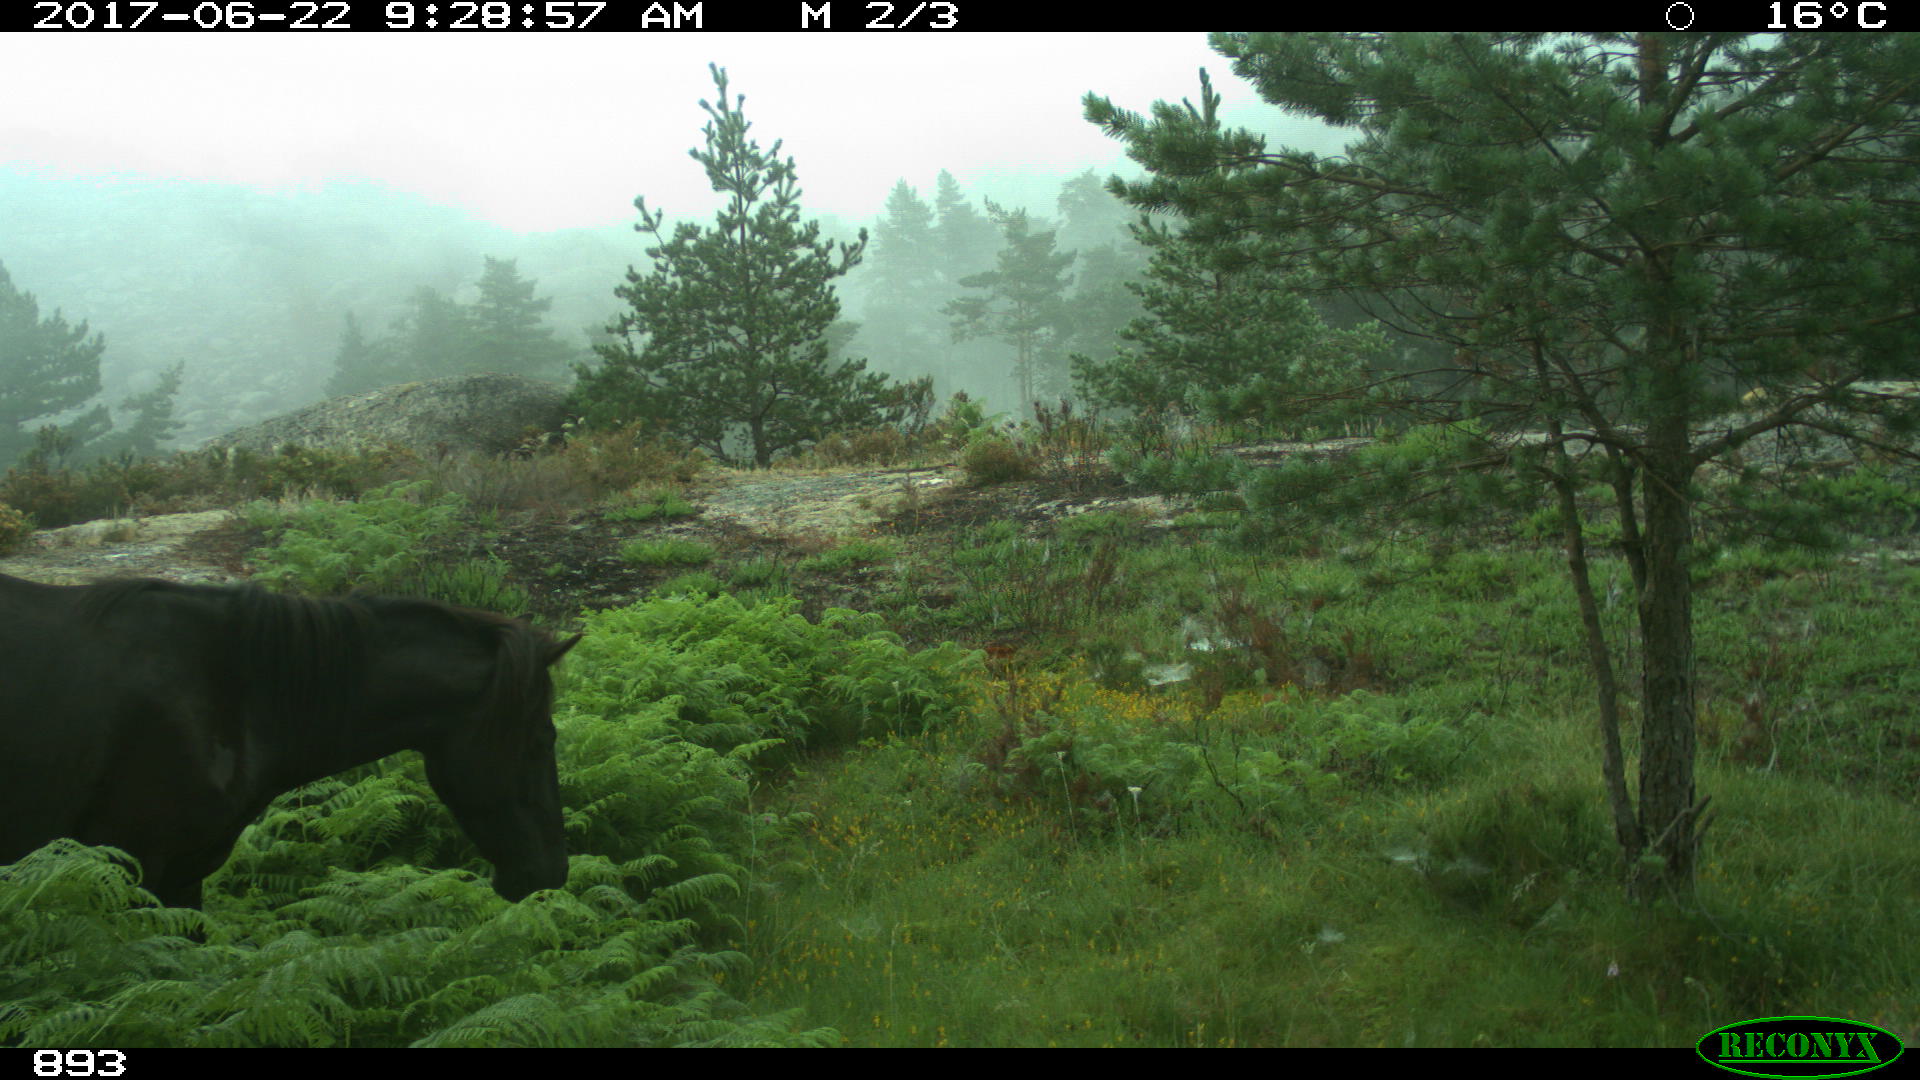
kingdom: Animalia
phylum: Chordata
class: Mammalia
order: Perissodactyla
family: Equidae
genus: Equus
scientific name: Equus caballus
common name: Horse
